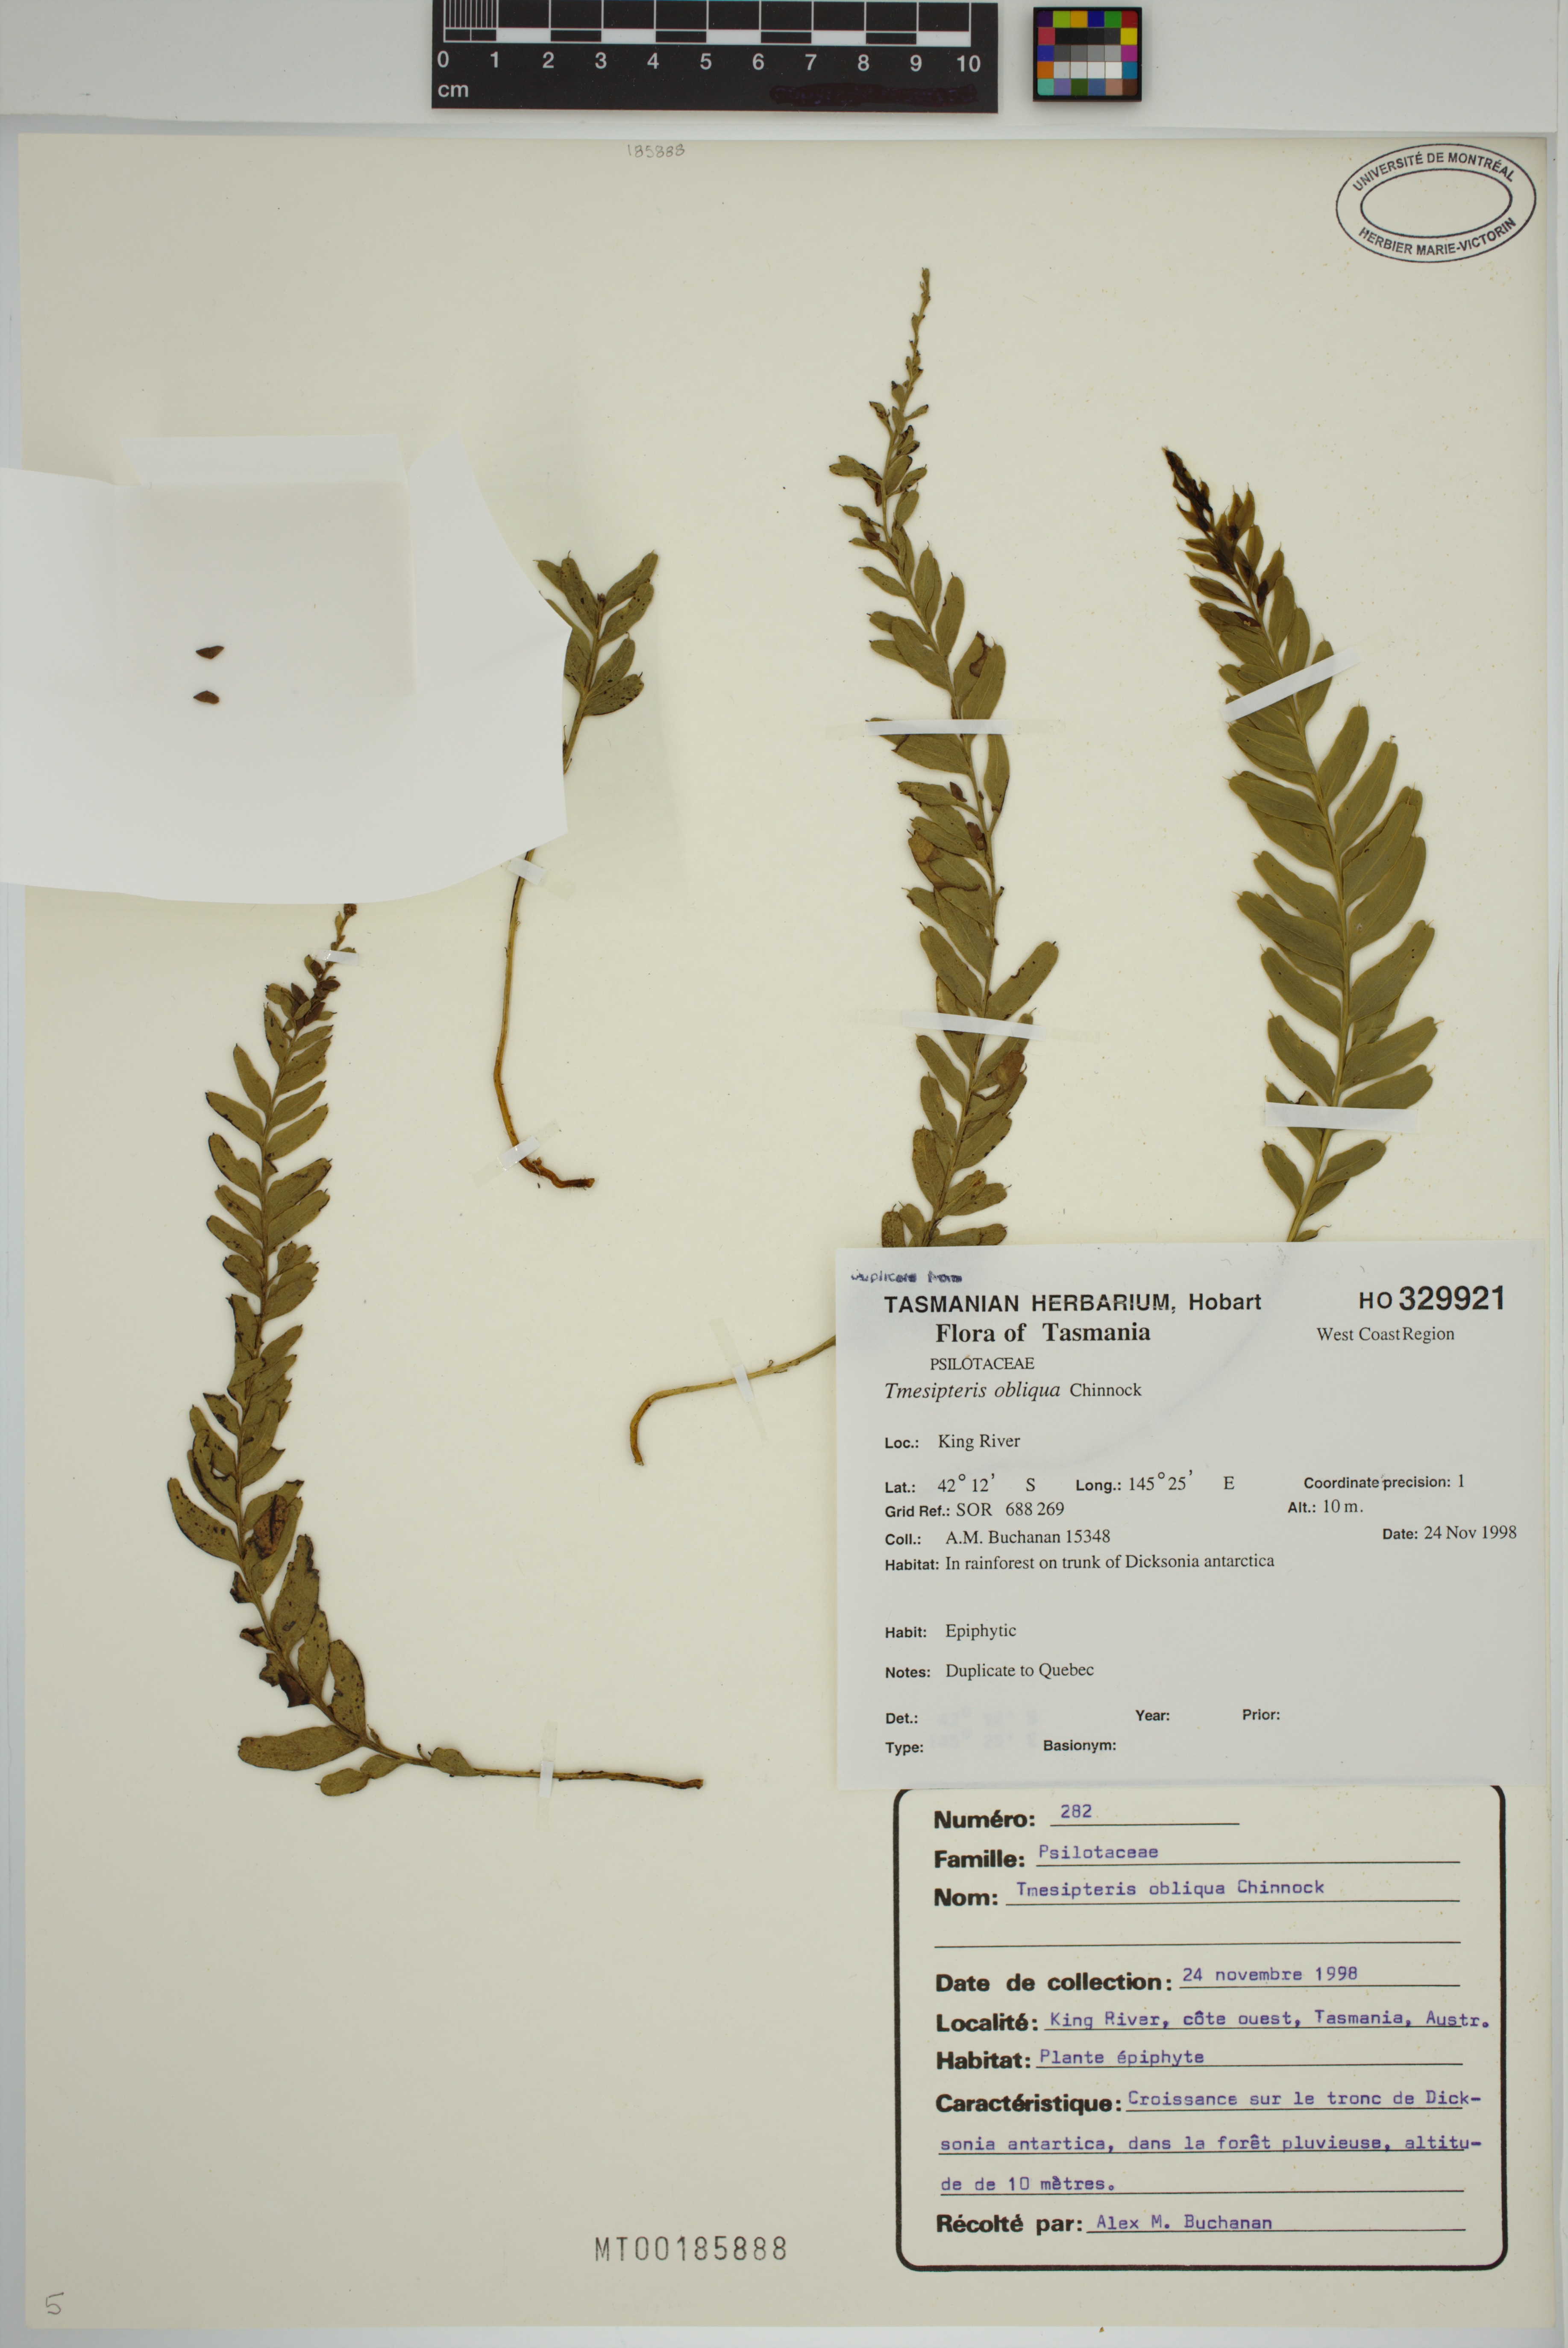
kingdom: Plantae
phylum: Tracheophyta
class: Polypodiopsida
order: Psilotales
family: Psilotaceae
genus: Tmesipteris
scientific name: Tmesipteris obliqua
